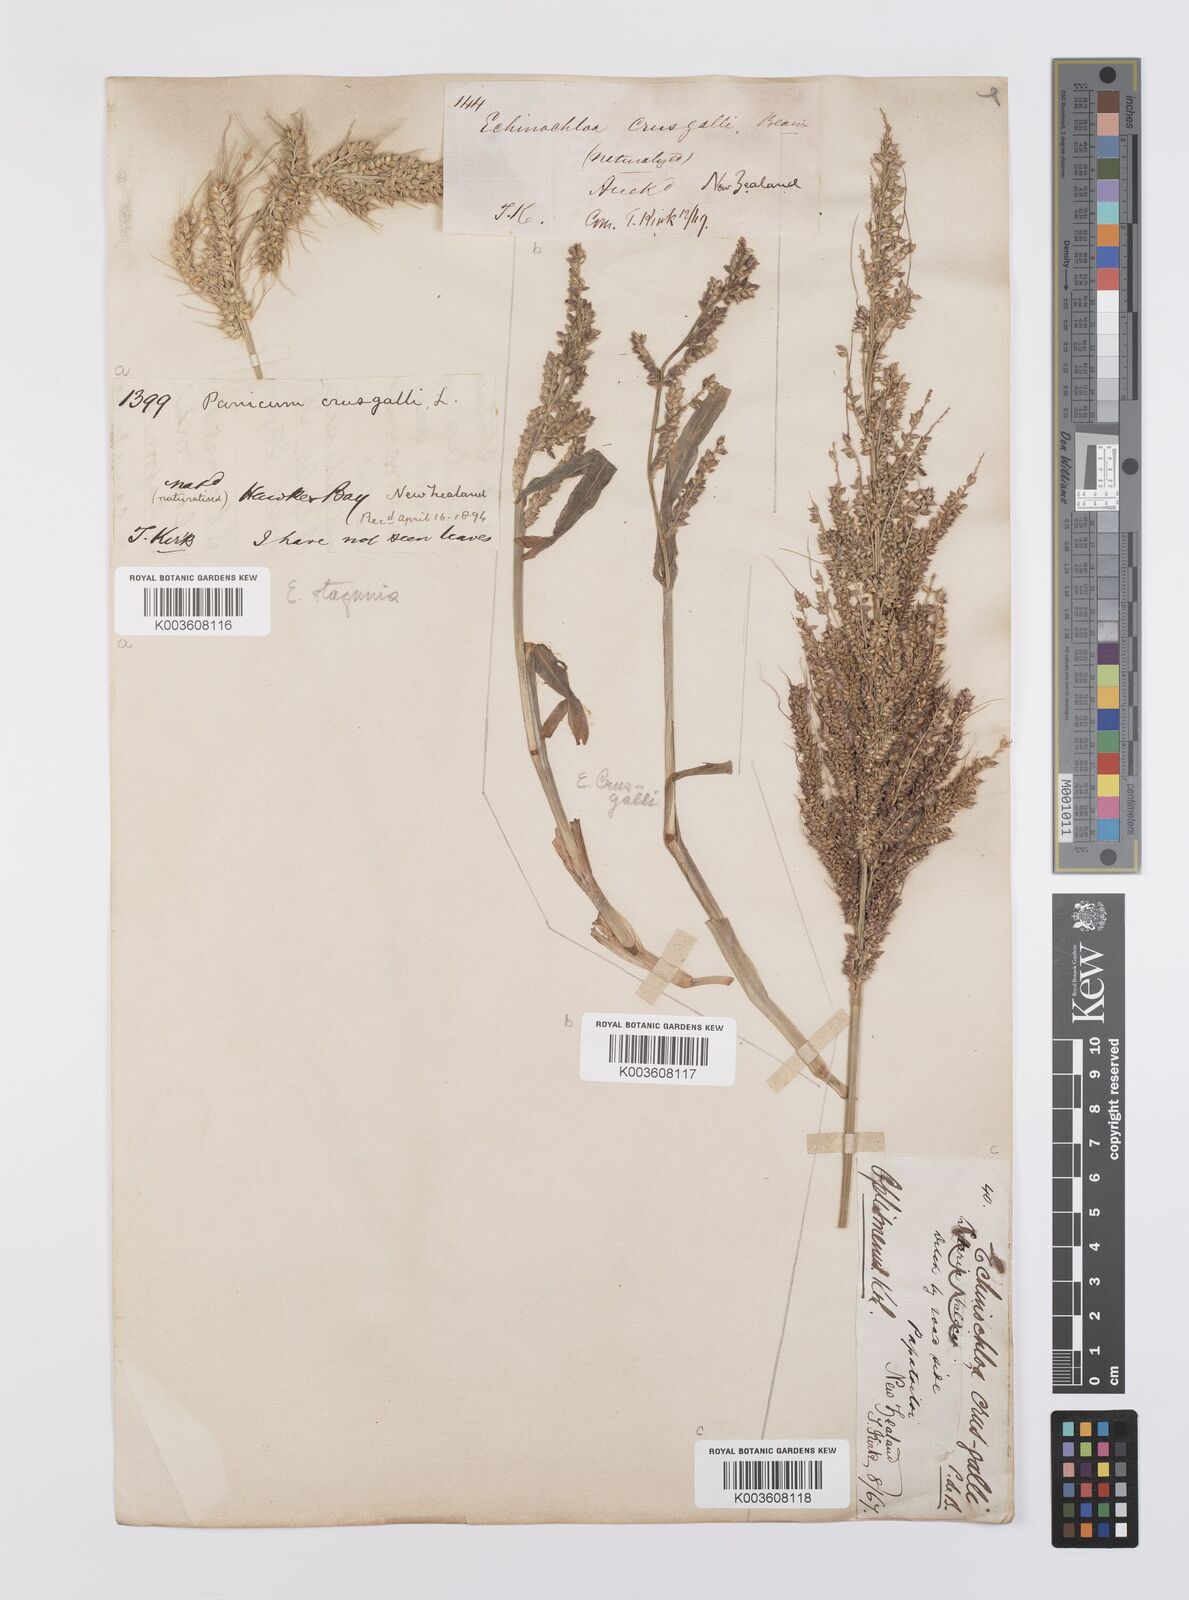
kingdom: Plantae
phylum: Tracheophyta
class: Liliopsida
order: Poales
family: Poaceae
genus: Echinochloa
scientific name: Echinochloa crus-galli
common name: Cockspur
